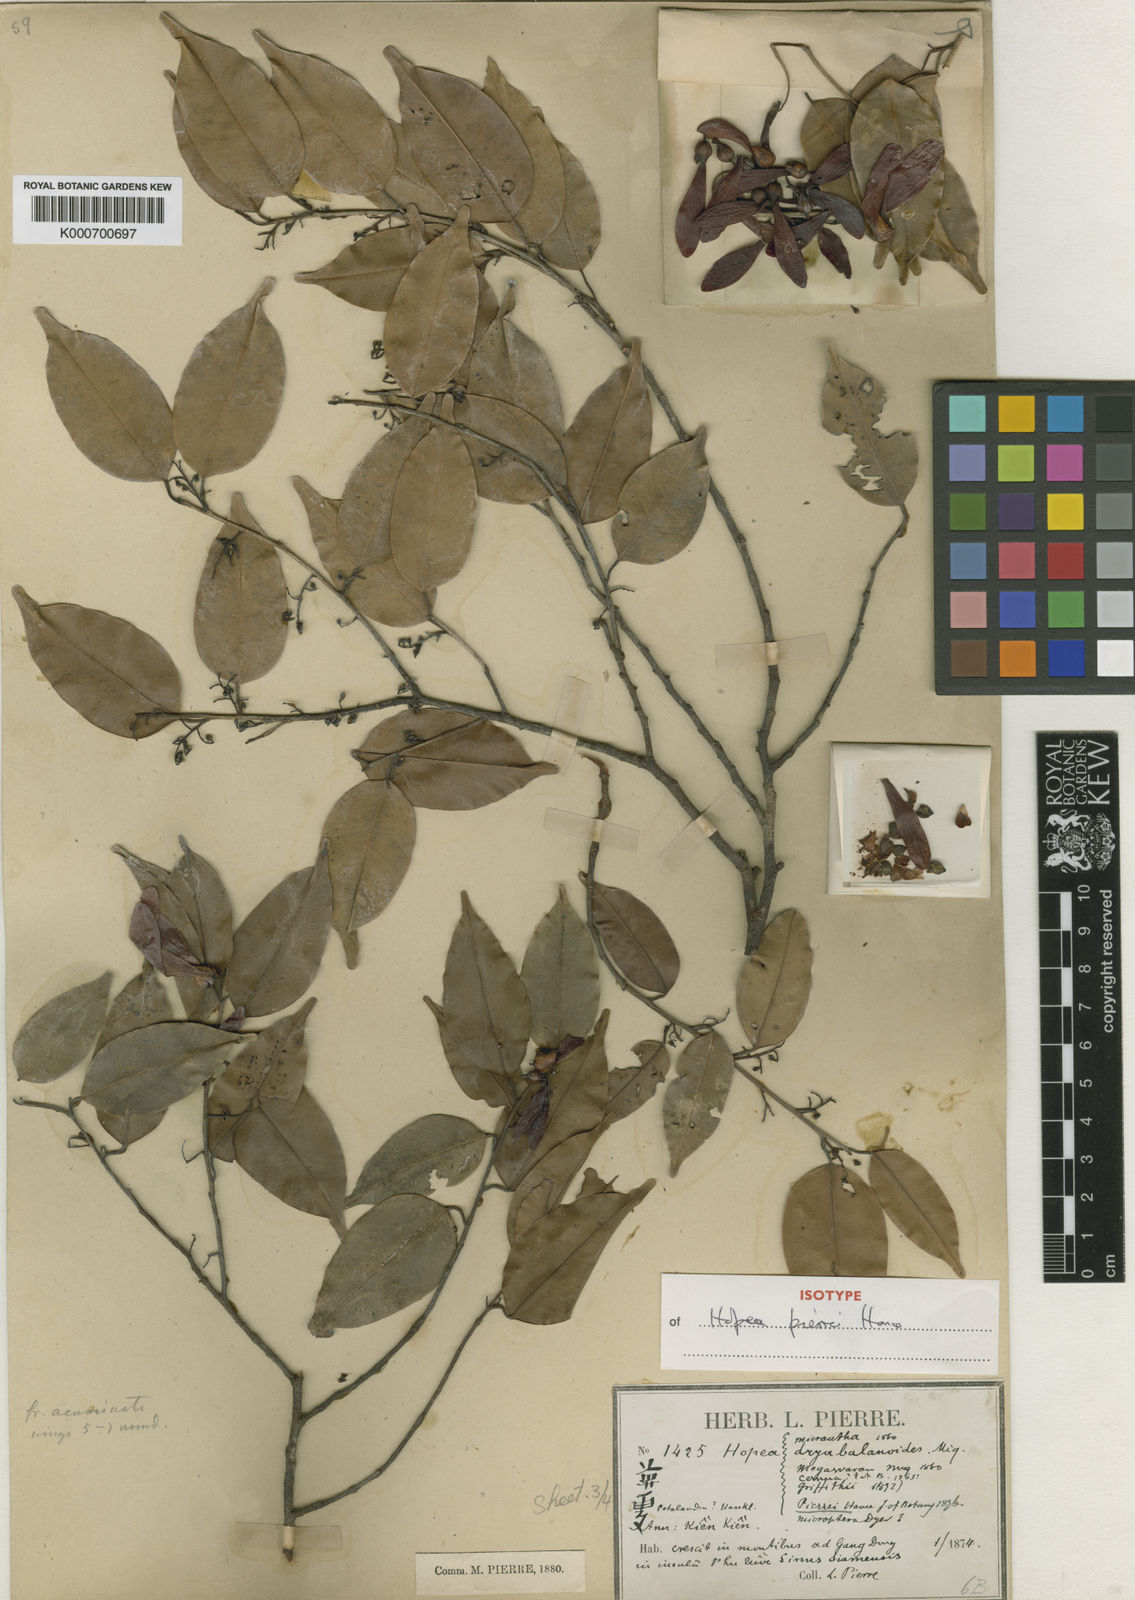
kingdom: Plantae
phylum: Tracheophyta
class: Magnoliopsida
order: Malvales
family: Dipterocarpaceae
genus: Hopea
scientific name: Hopea pierrei
